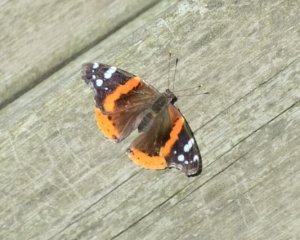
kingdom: Animalia
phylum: Arthropoda
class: Insecta
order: Lepidoptera
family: Nymphalidae
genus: Vanessa
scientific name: Vanessa atalanta
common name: Red Admiral
